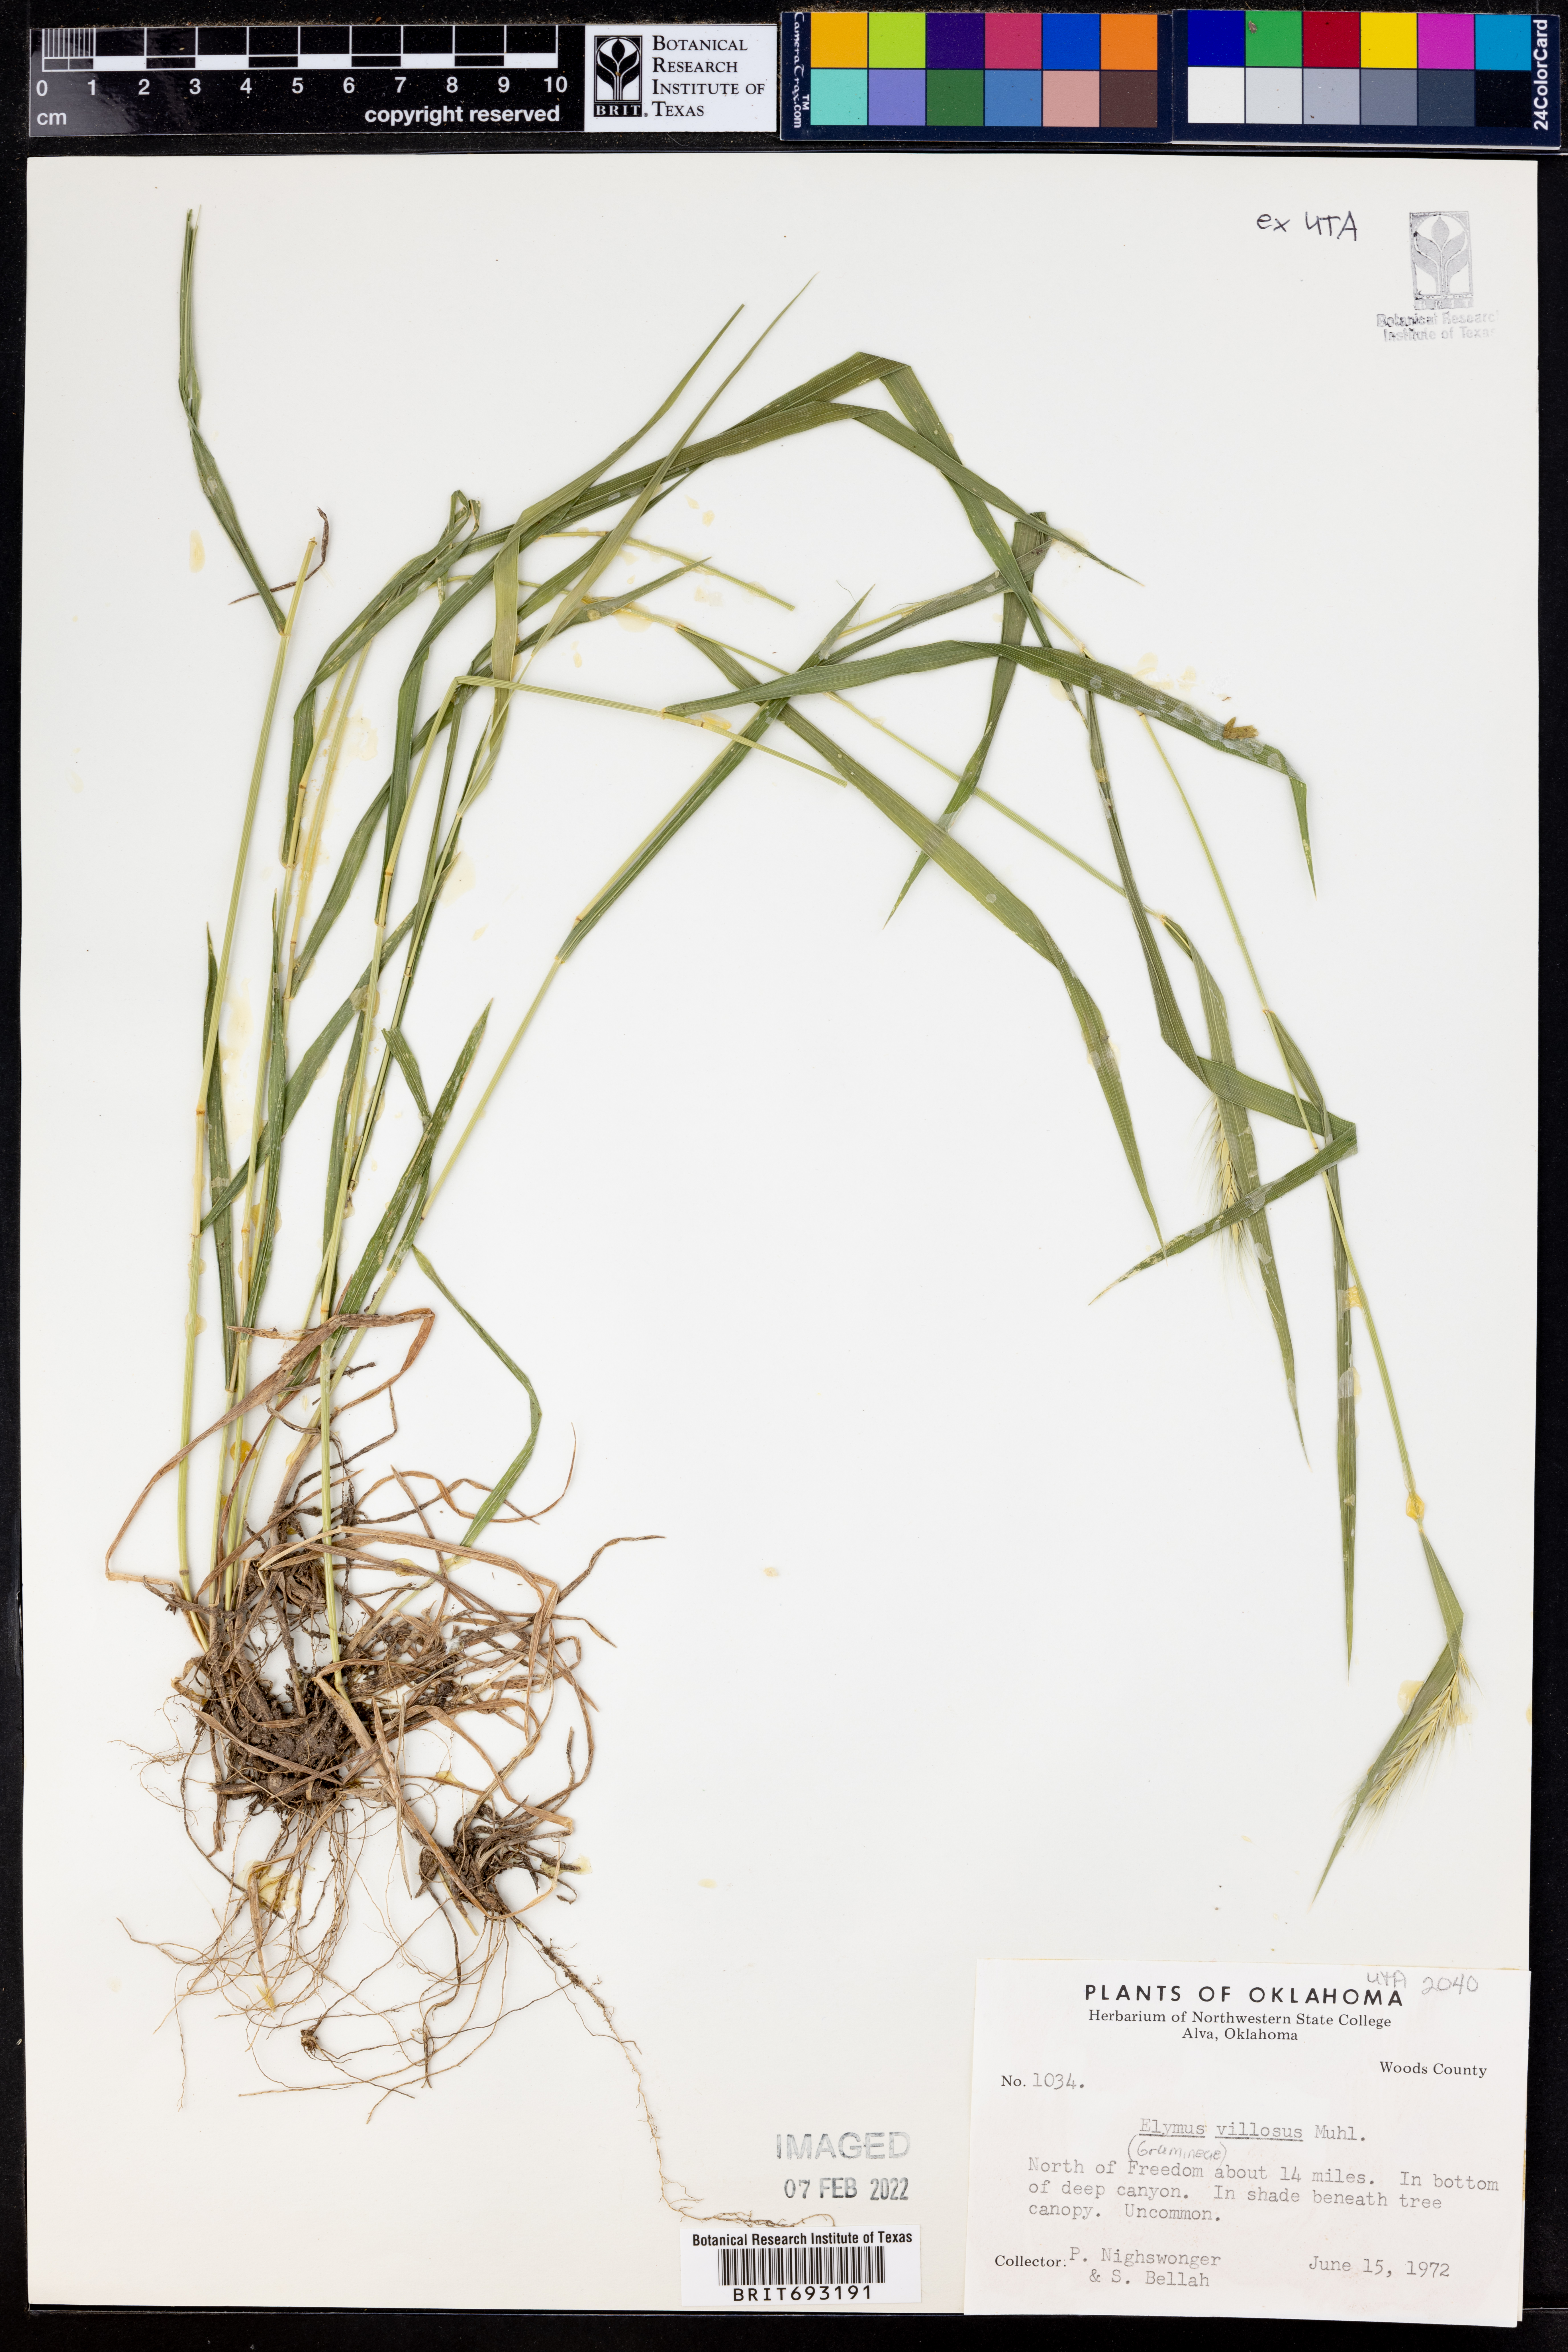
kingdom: Plantae
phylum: Tracheophyta
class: Liliopsida
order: Poales
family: Poaceae
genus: Elymus
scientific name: Elymus villosus
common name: Downy wild rye
